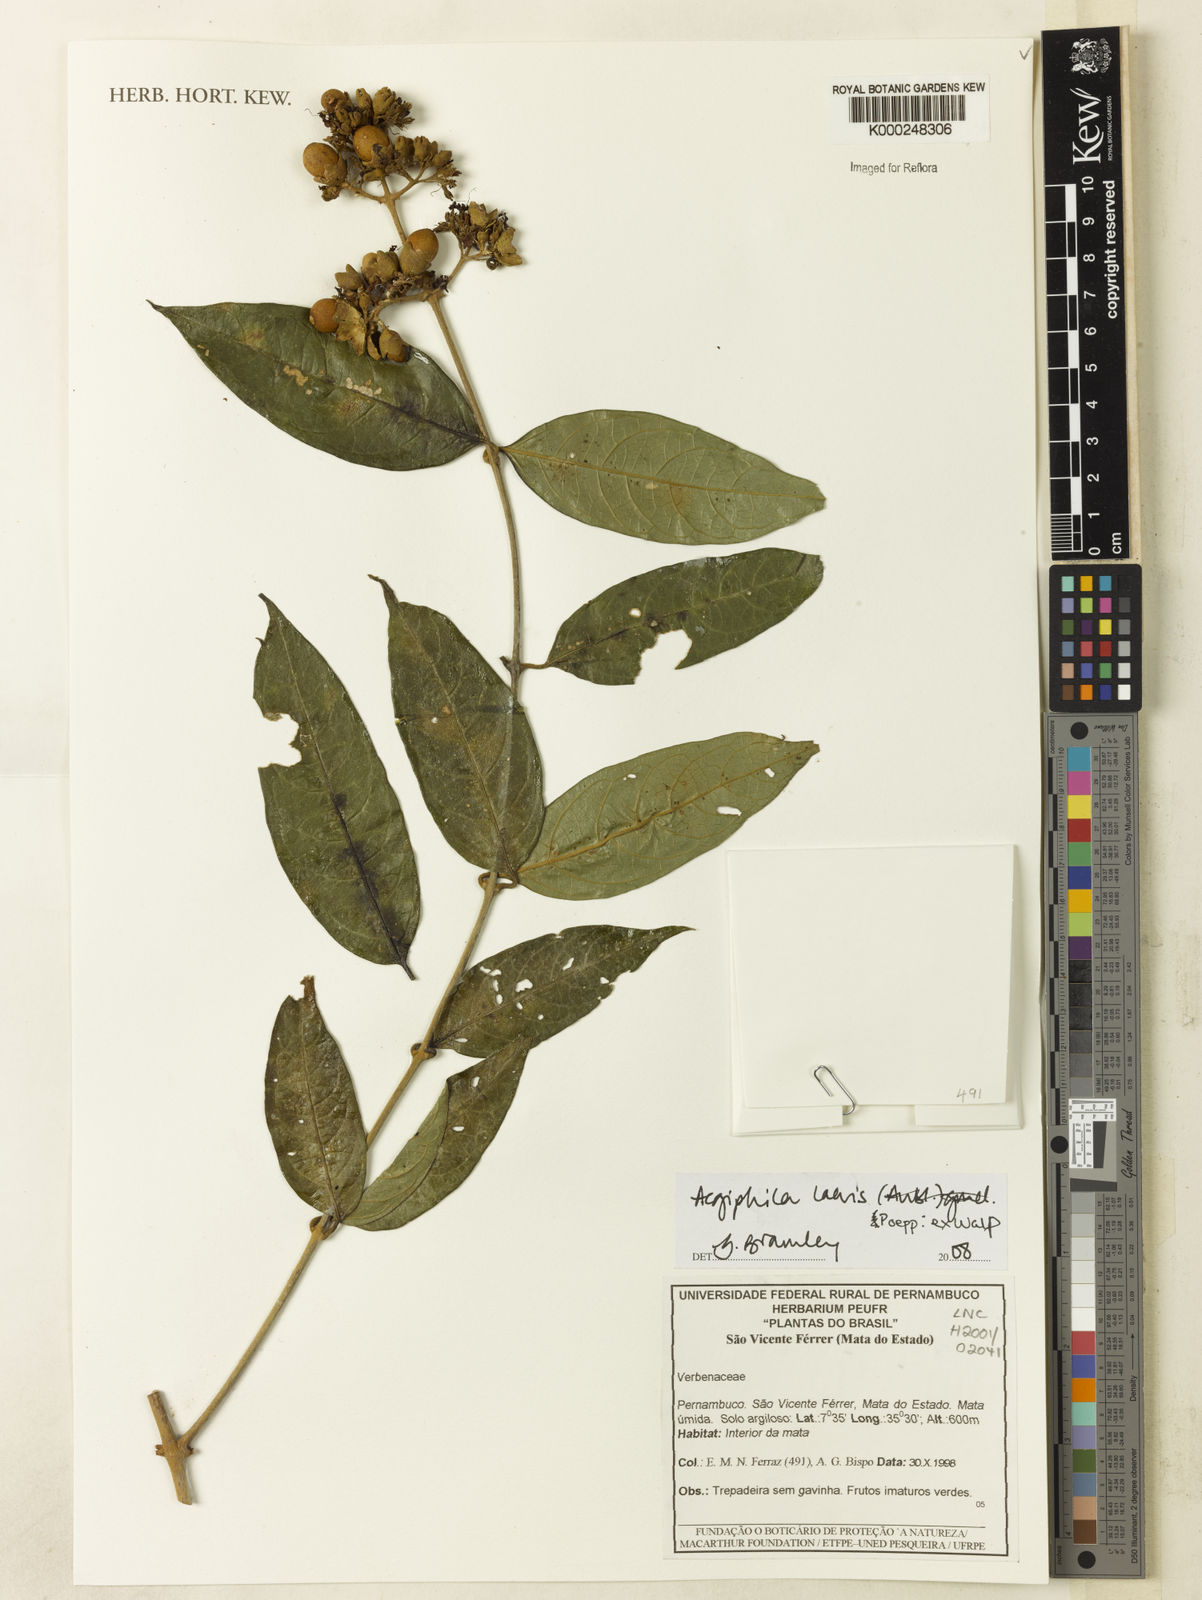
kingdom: Plantae
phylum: Tracheophyta
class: Magnoliopsida
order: Lamiales
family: Lamiaceae
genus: Aegiphila
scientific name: Aegiphila elata
